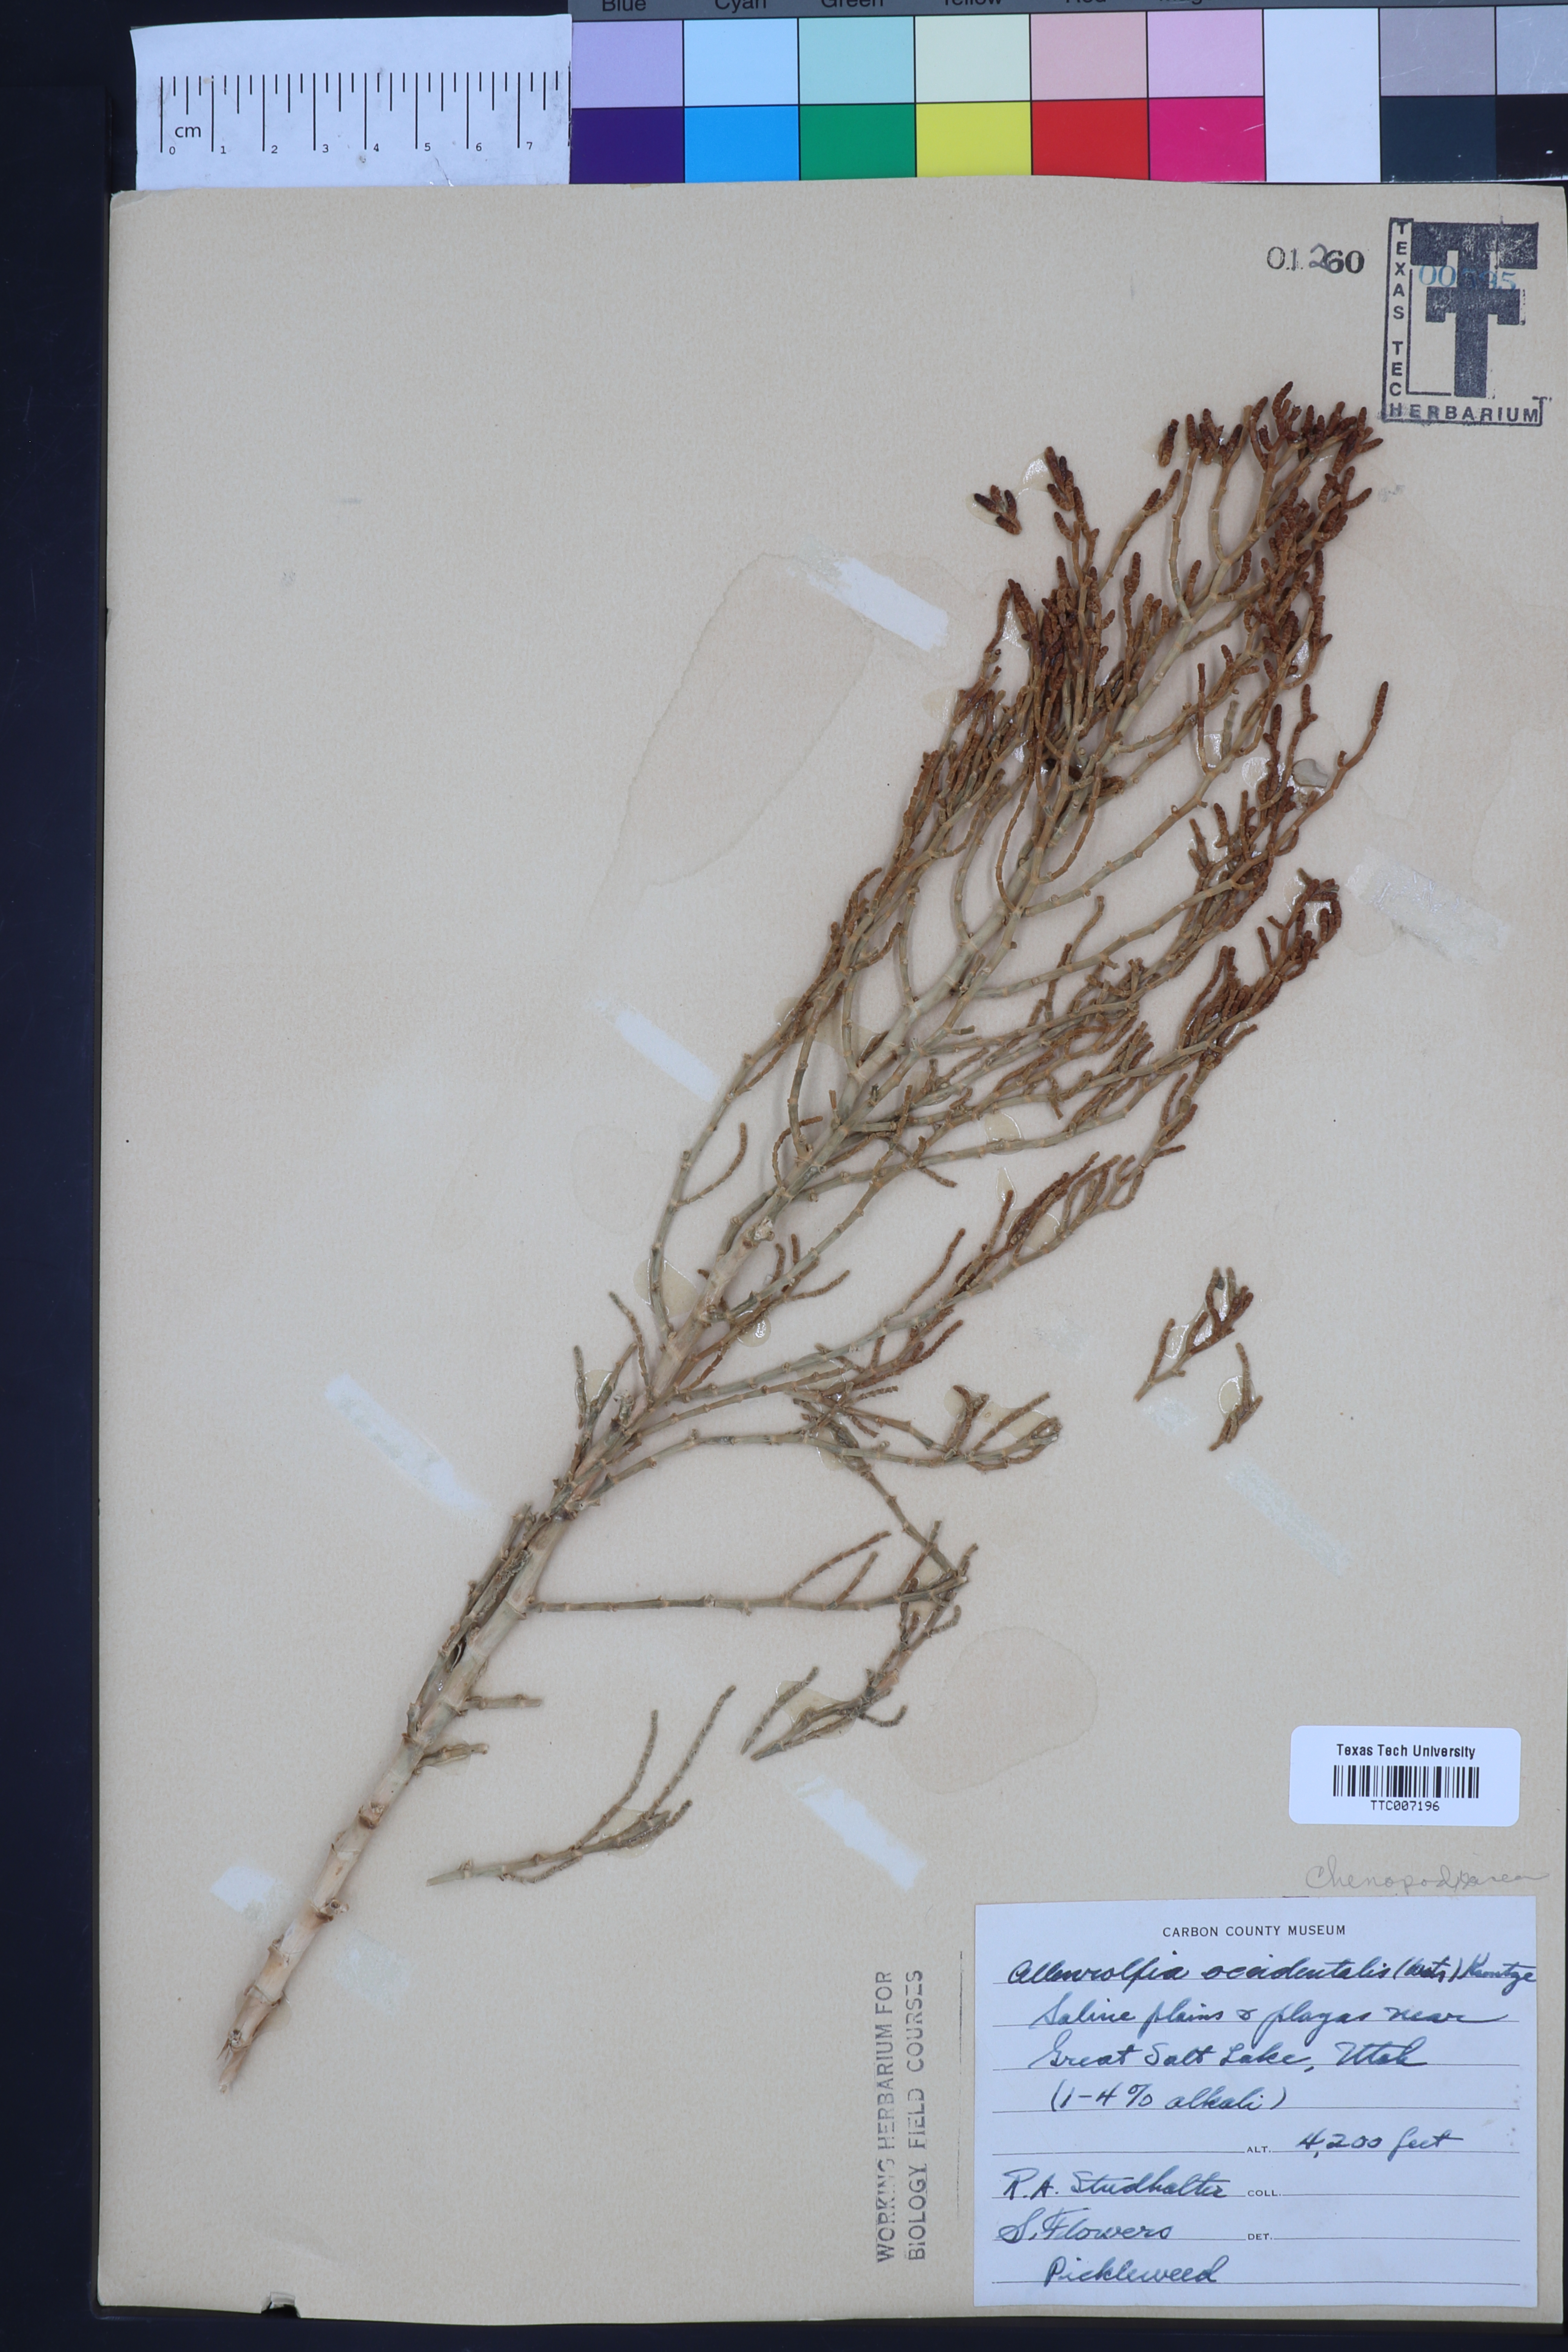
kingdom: Plantae
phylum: Tracheophyta
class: Magnoliopsida
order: Caryophyllales
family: Amaranthaceae
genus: Allenrolfea
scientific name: Allenrolfea occidentalis
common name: Iodine-bush
